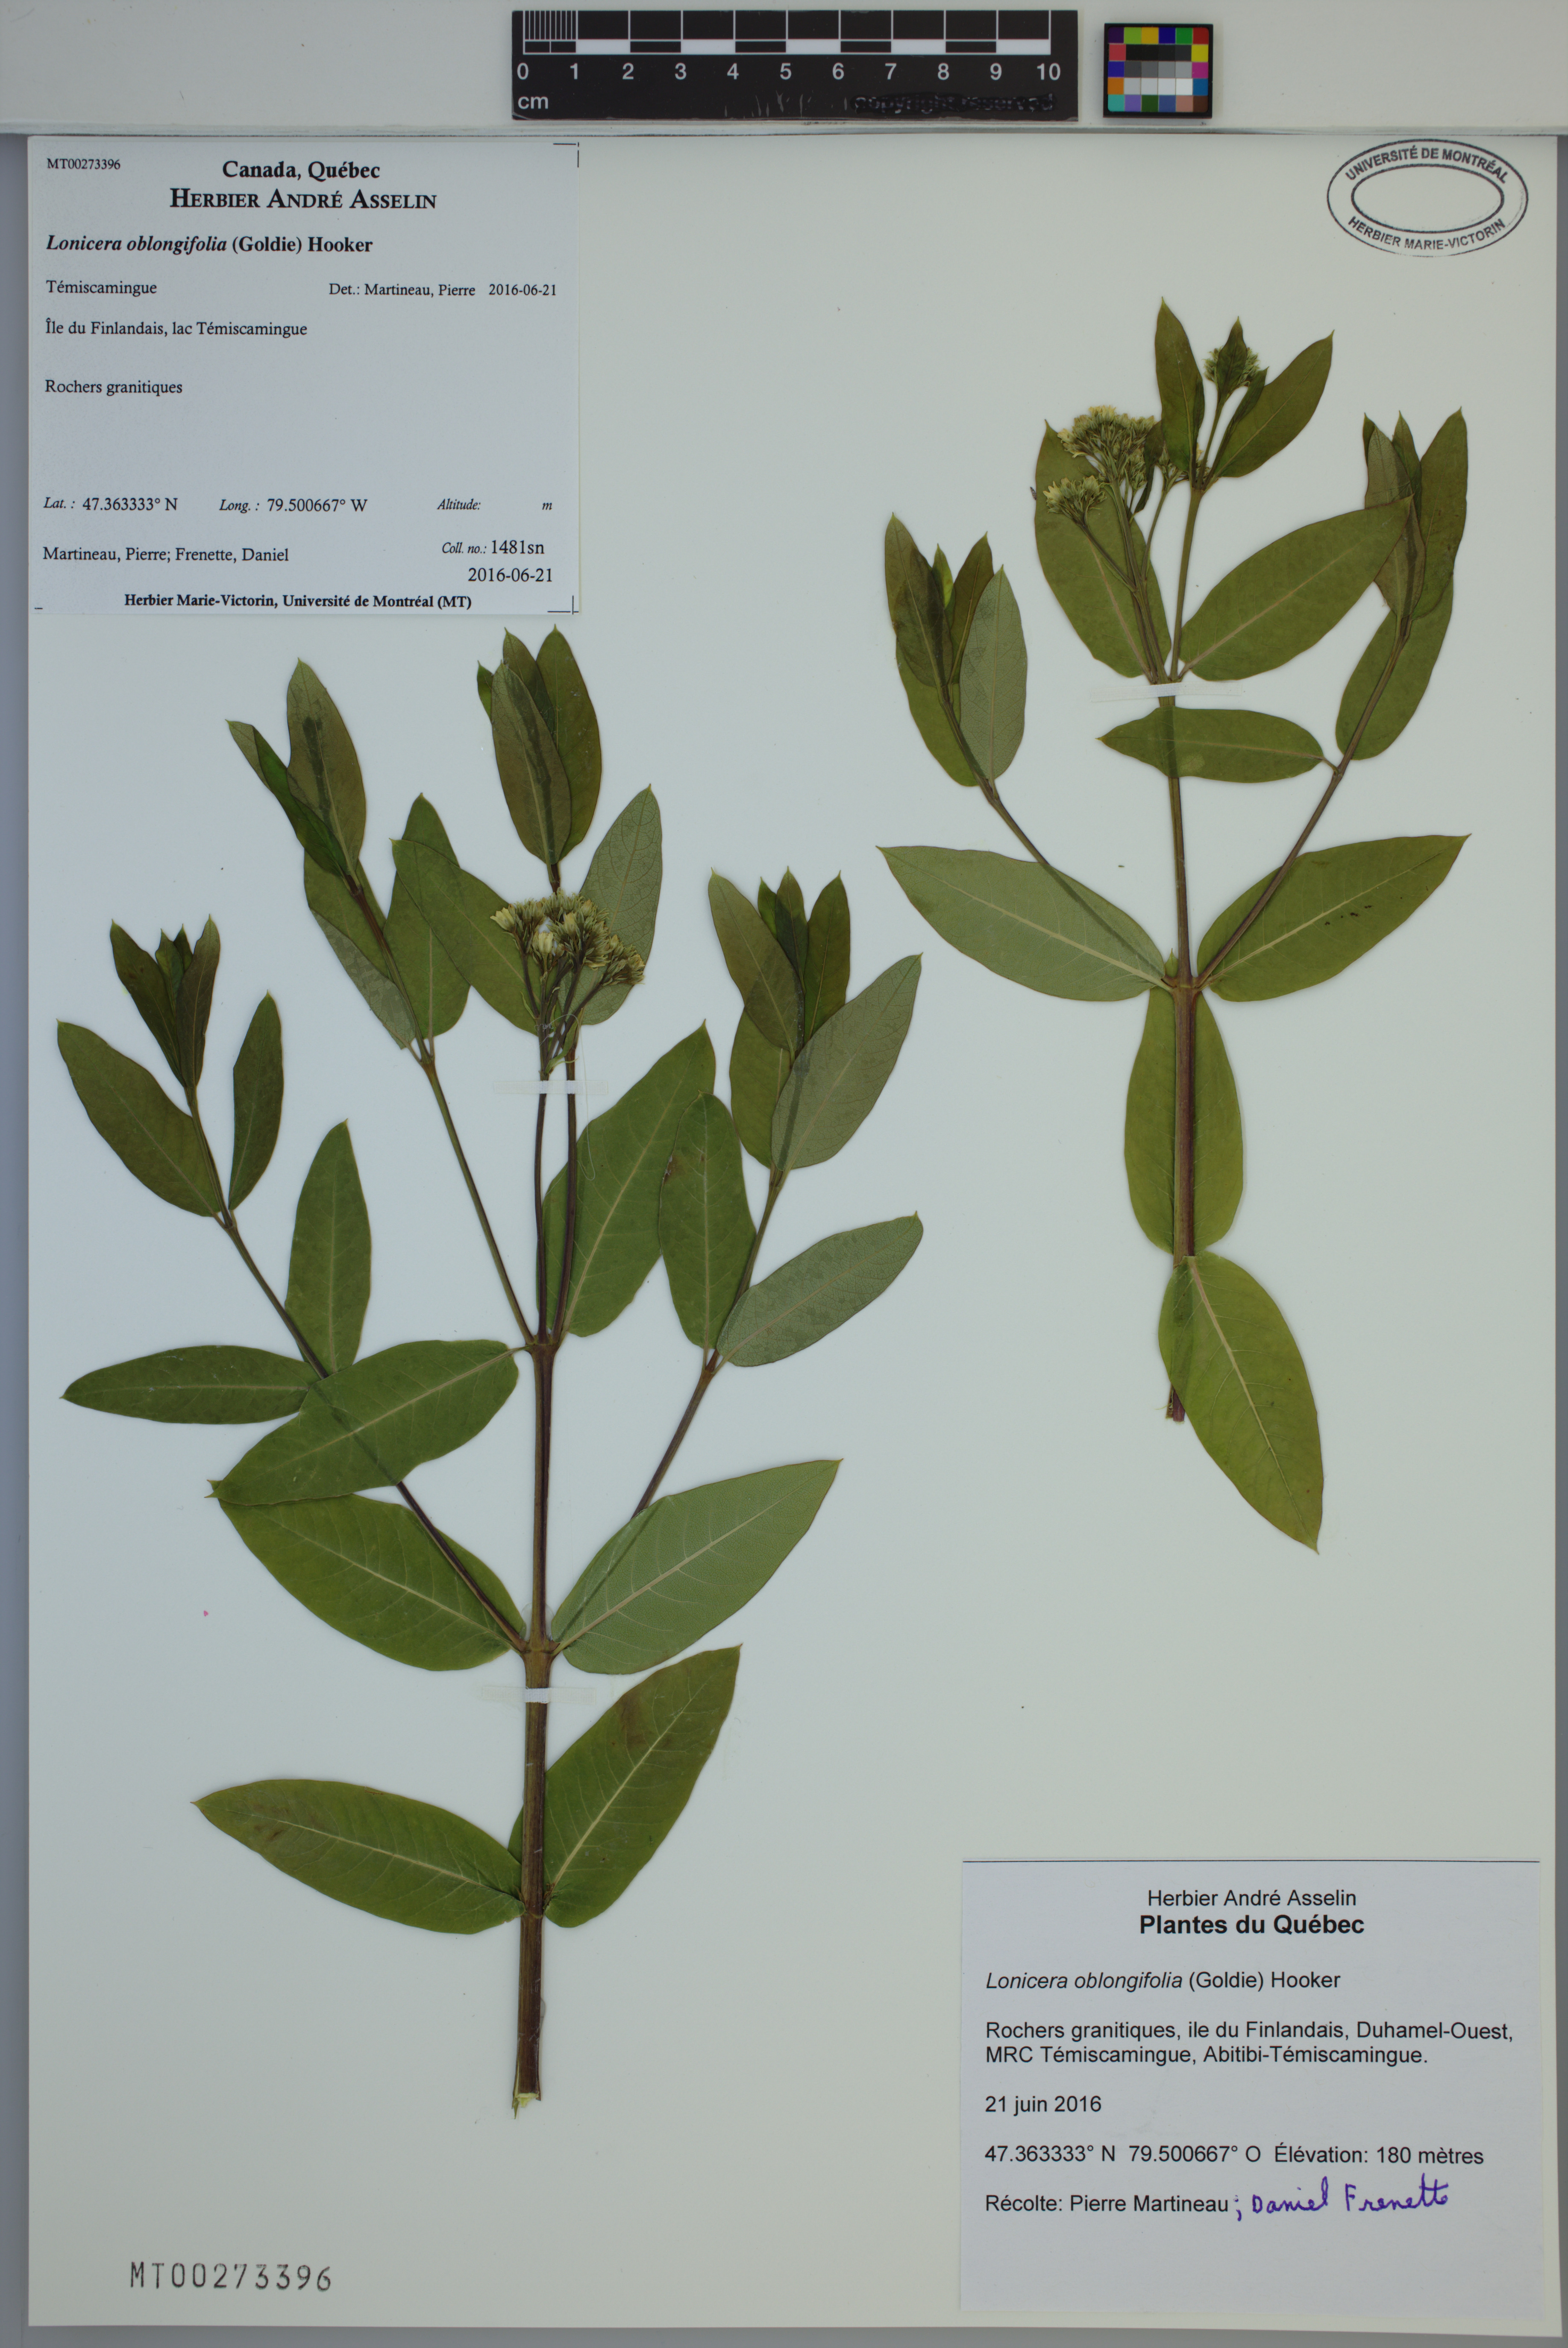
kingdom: Plantae
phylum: Tracheophyta
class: Magnoliopsida
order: Dipsacales
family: Caprifoliaceae
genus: Lonicera
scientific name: Lonicera oblongifolia
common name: Swamp fly honeysuckle
